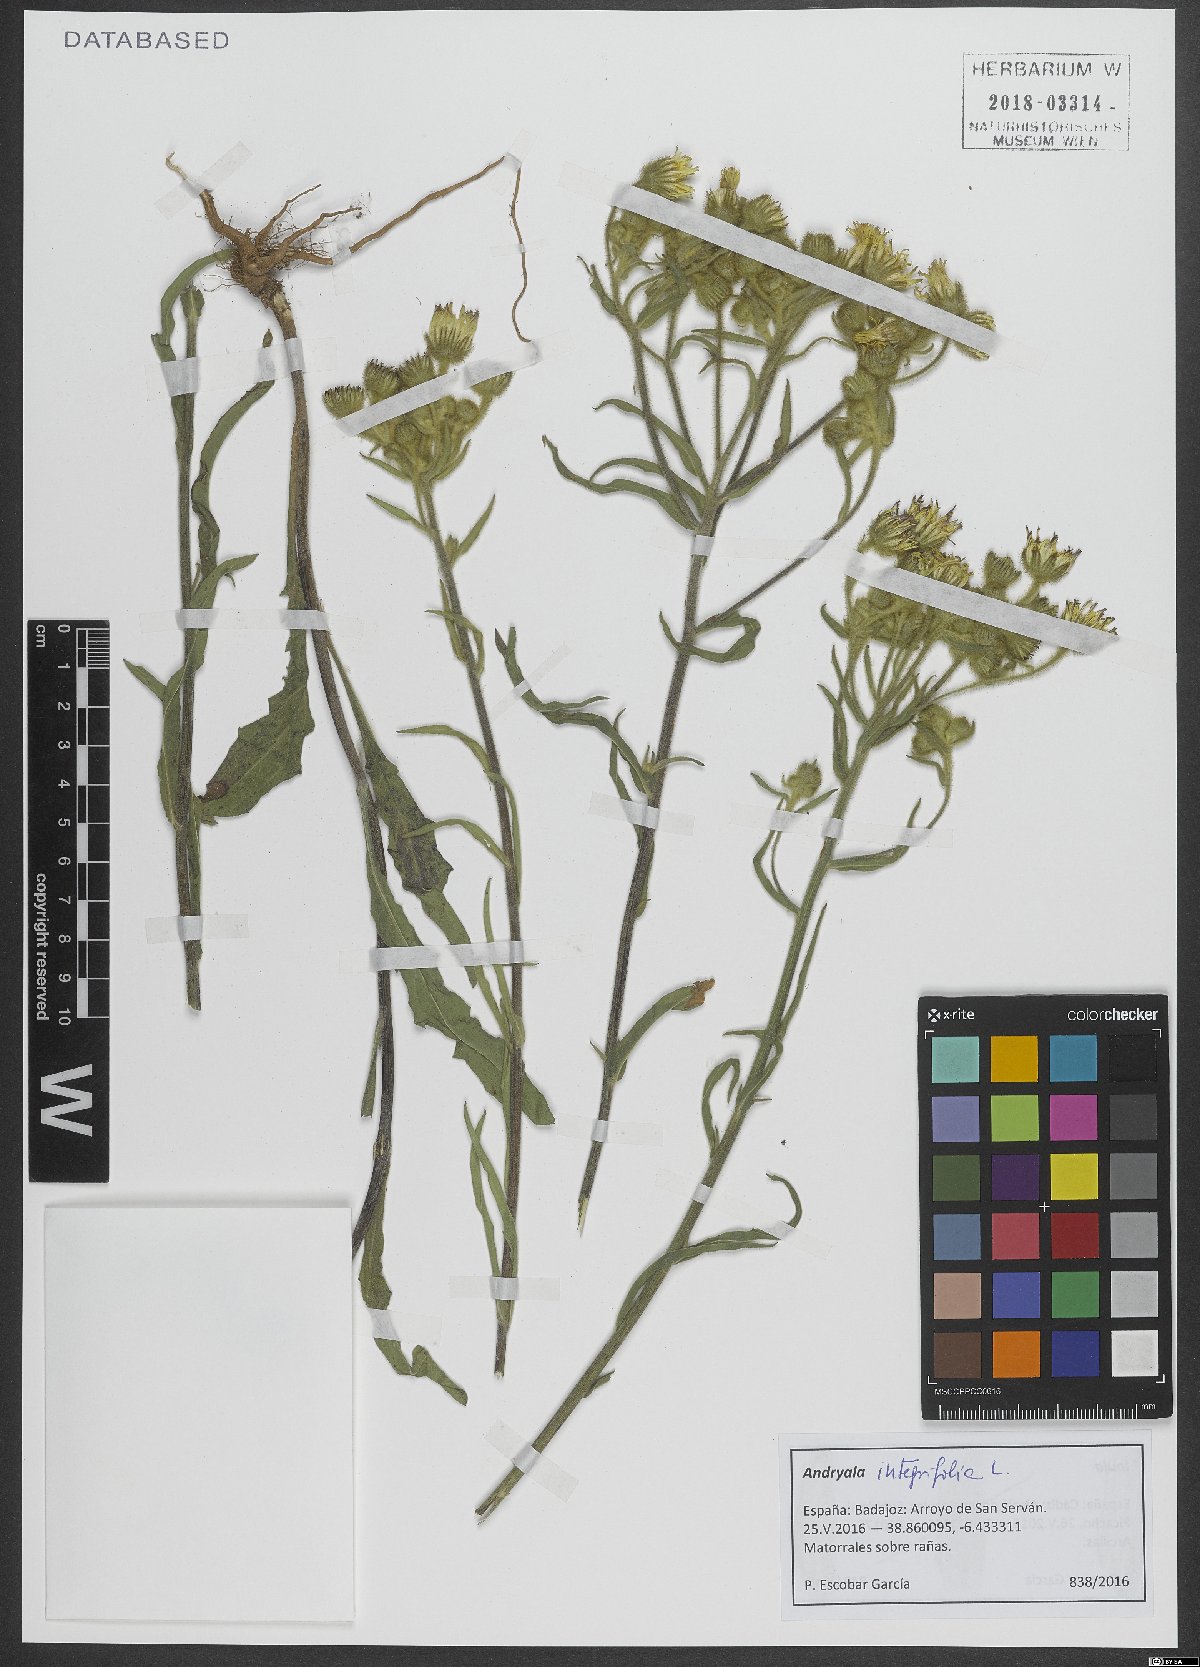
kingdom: Plantae
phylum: Tracheophyta
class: Magnoliopsida
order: Asterales
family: Asteraceae
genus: Andryala
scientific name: Andryala integrifolia
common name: Common andryala
